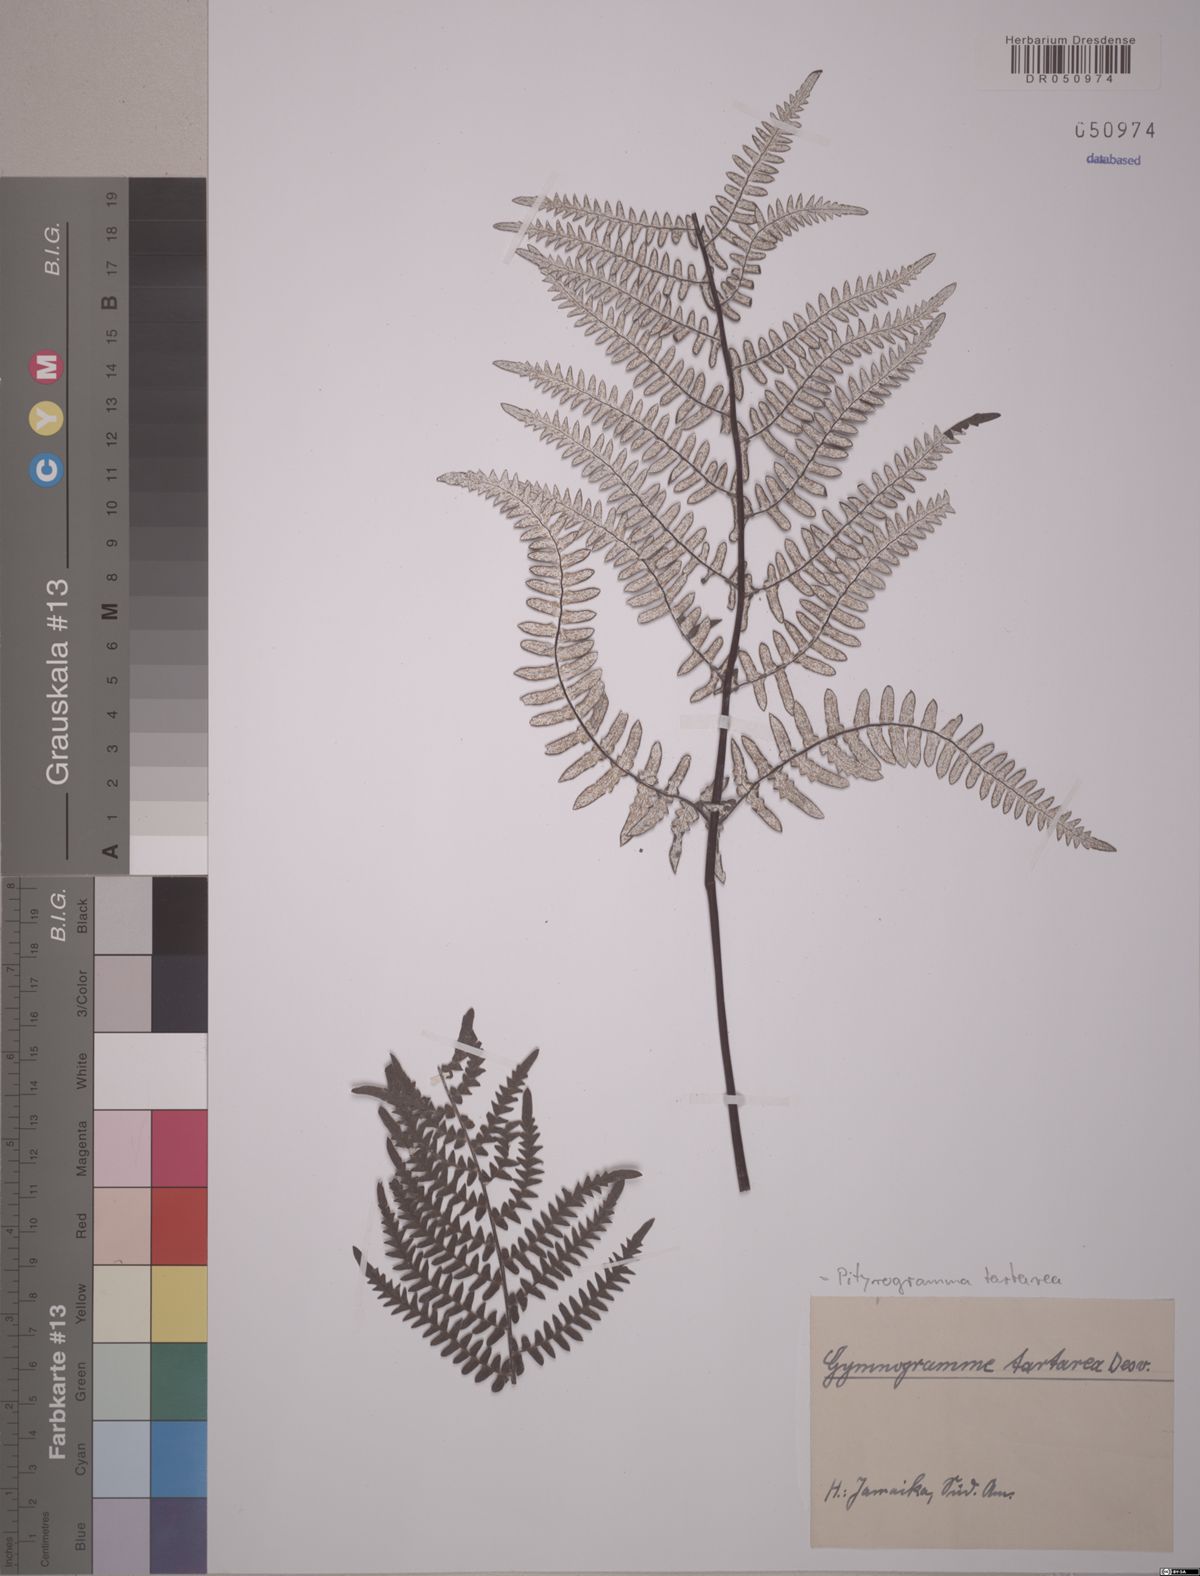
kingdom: Plantae
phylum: Tracheophyta
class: Polypodiopsida
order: Polypodiales
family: Pteridaceae
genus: Pityrogramma
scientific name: Pityrogramma ebenea
